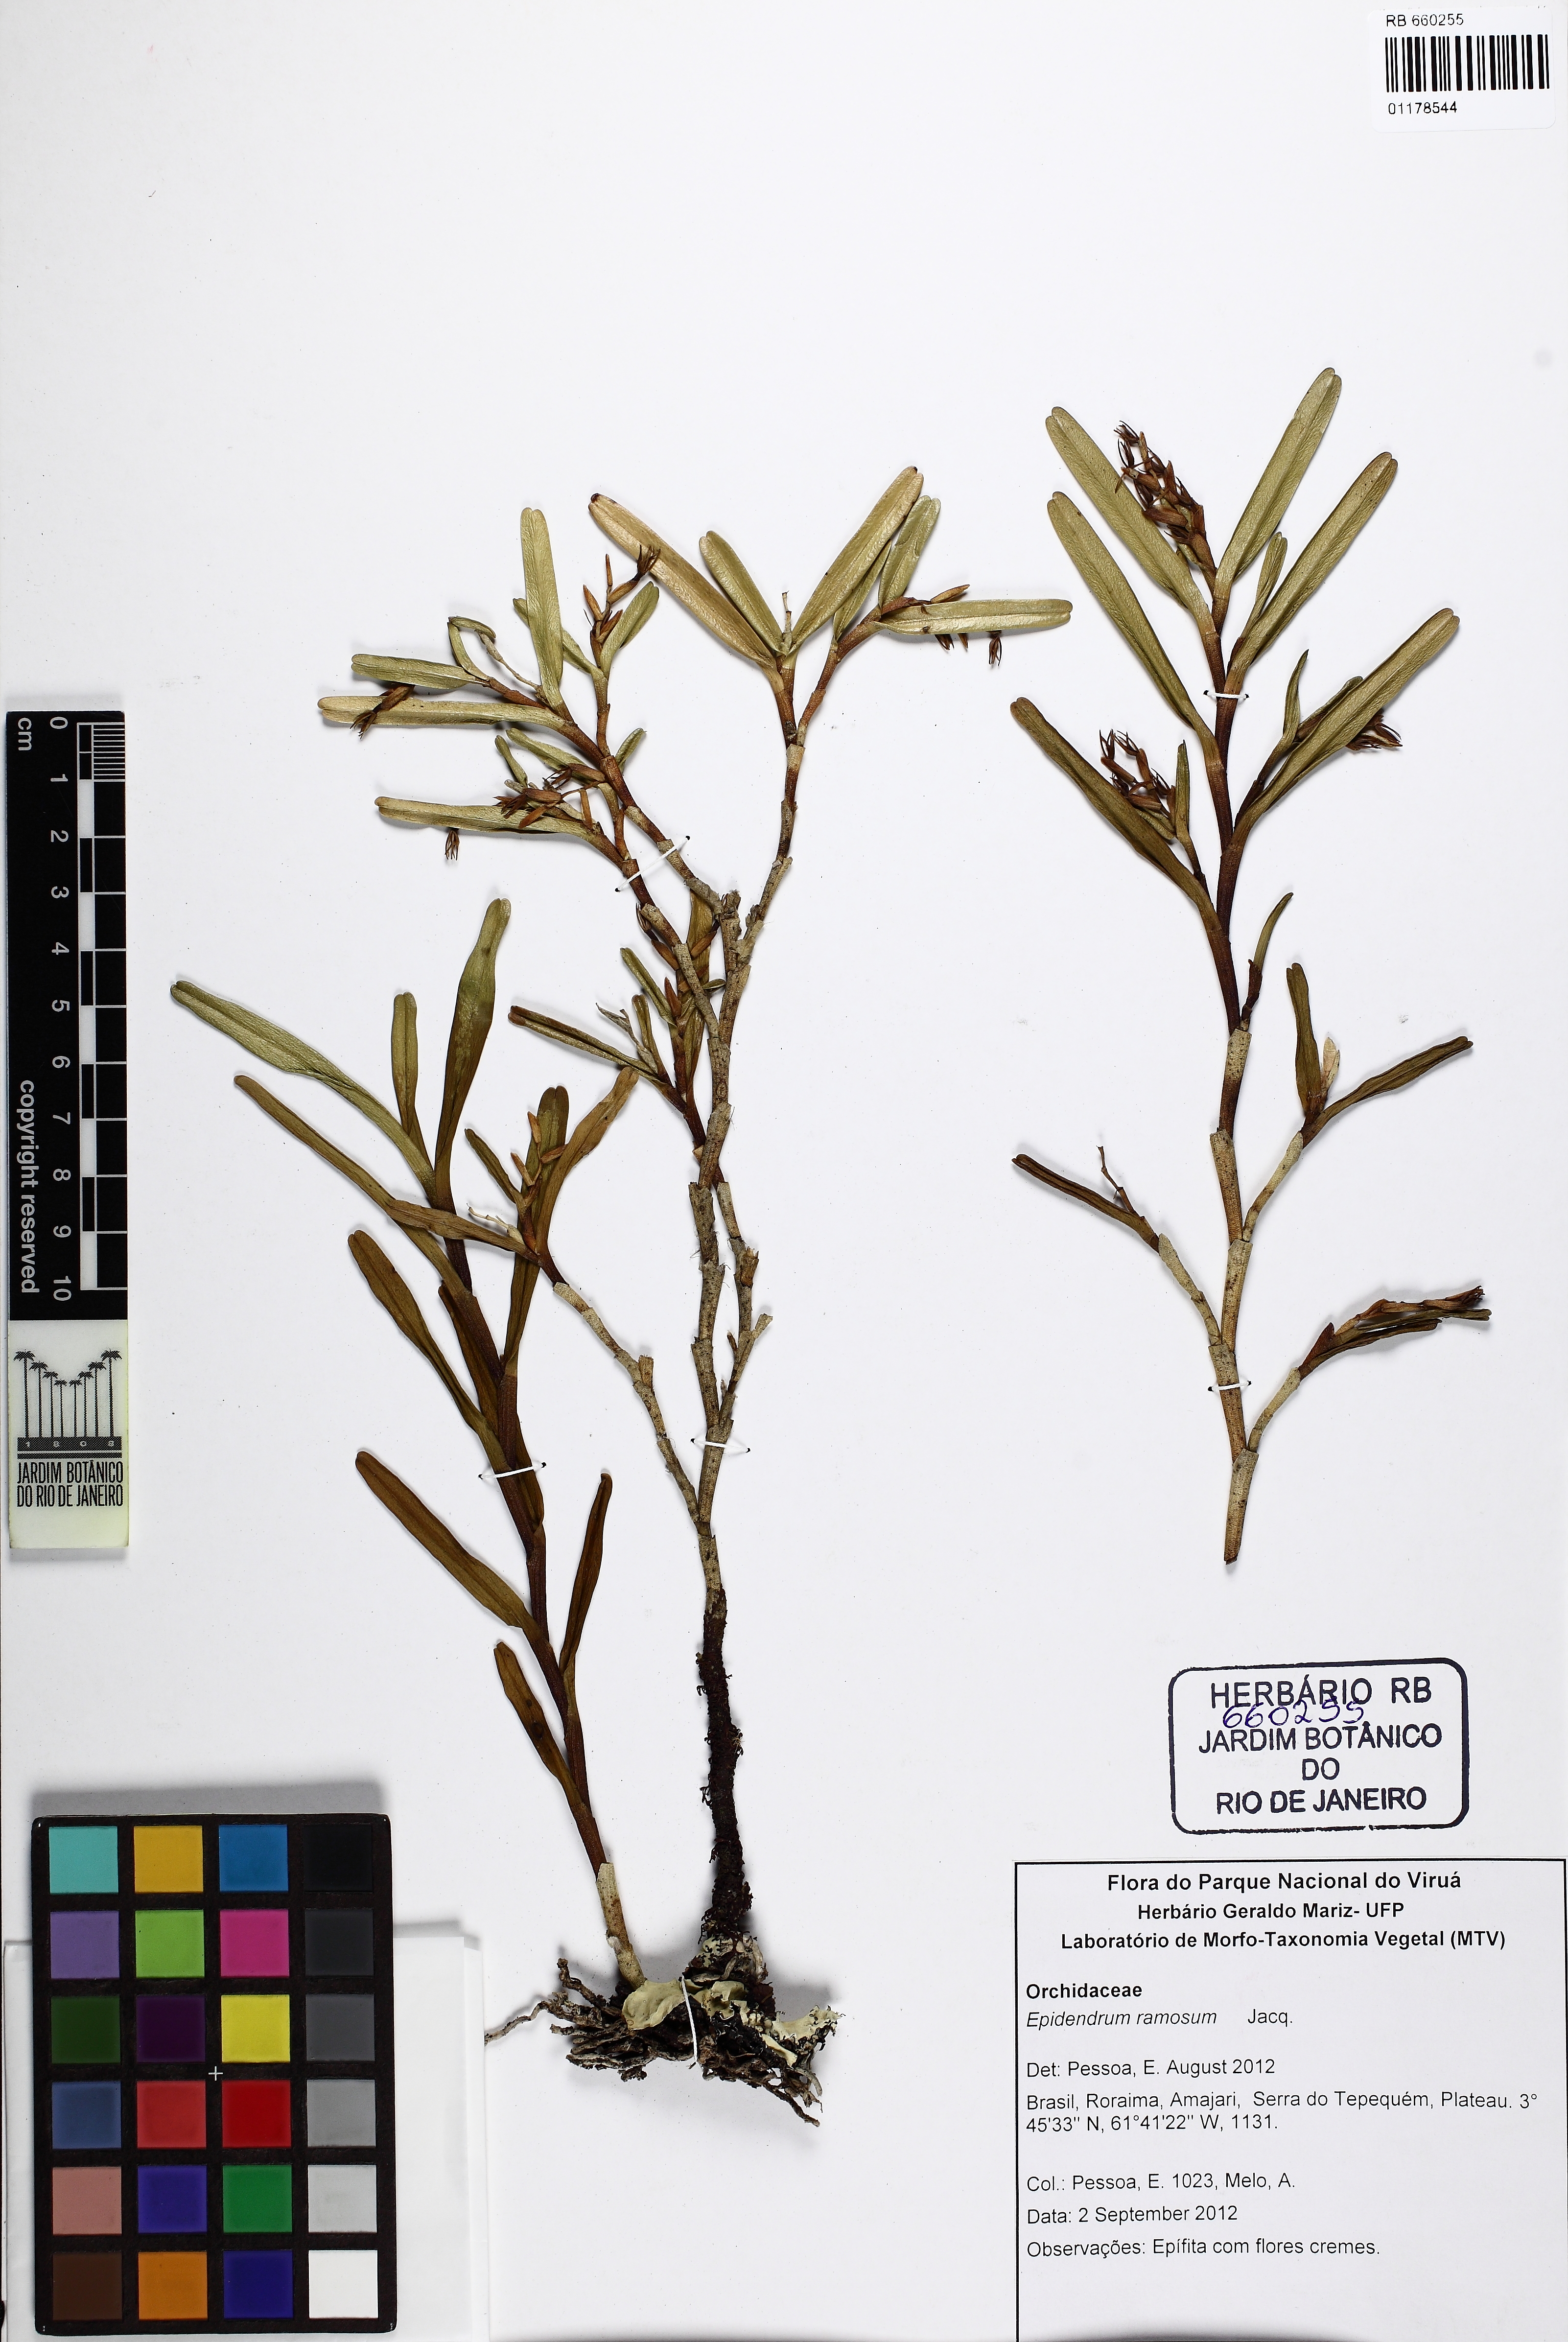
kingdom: Plantae
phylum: Tracheophyta
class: Liliopsida
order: Asparagales
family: Orchidaceae
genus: Epidendrum
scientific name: Epidendrum ramosum
